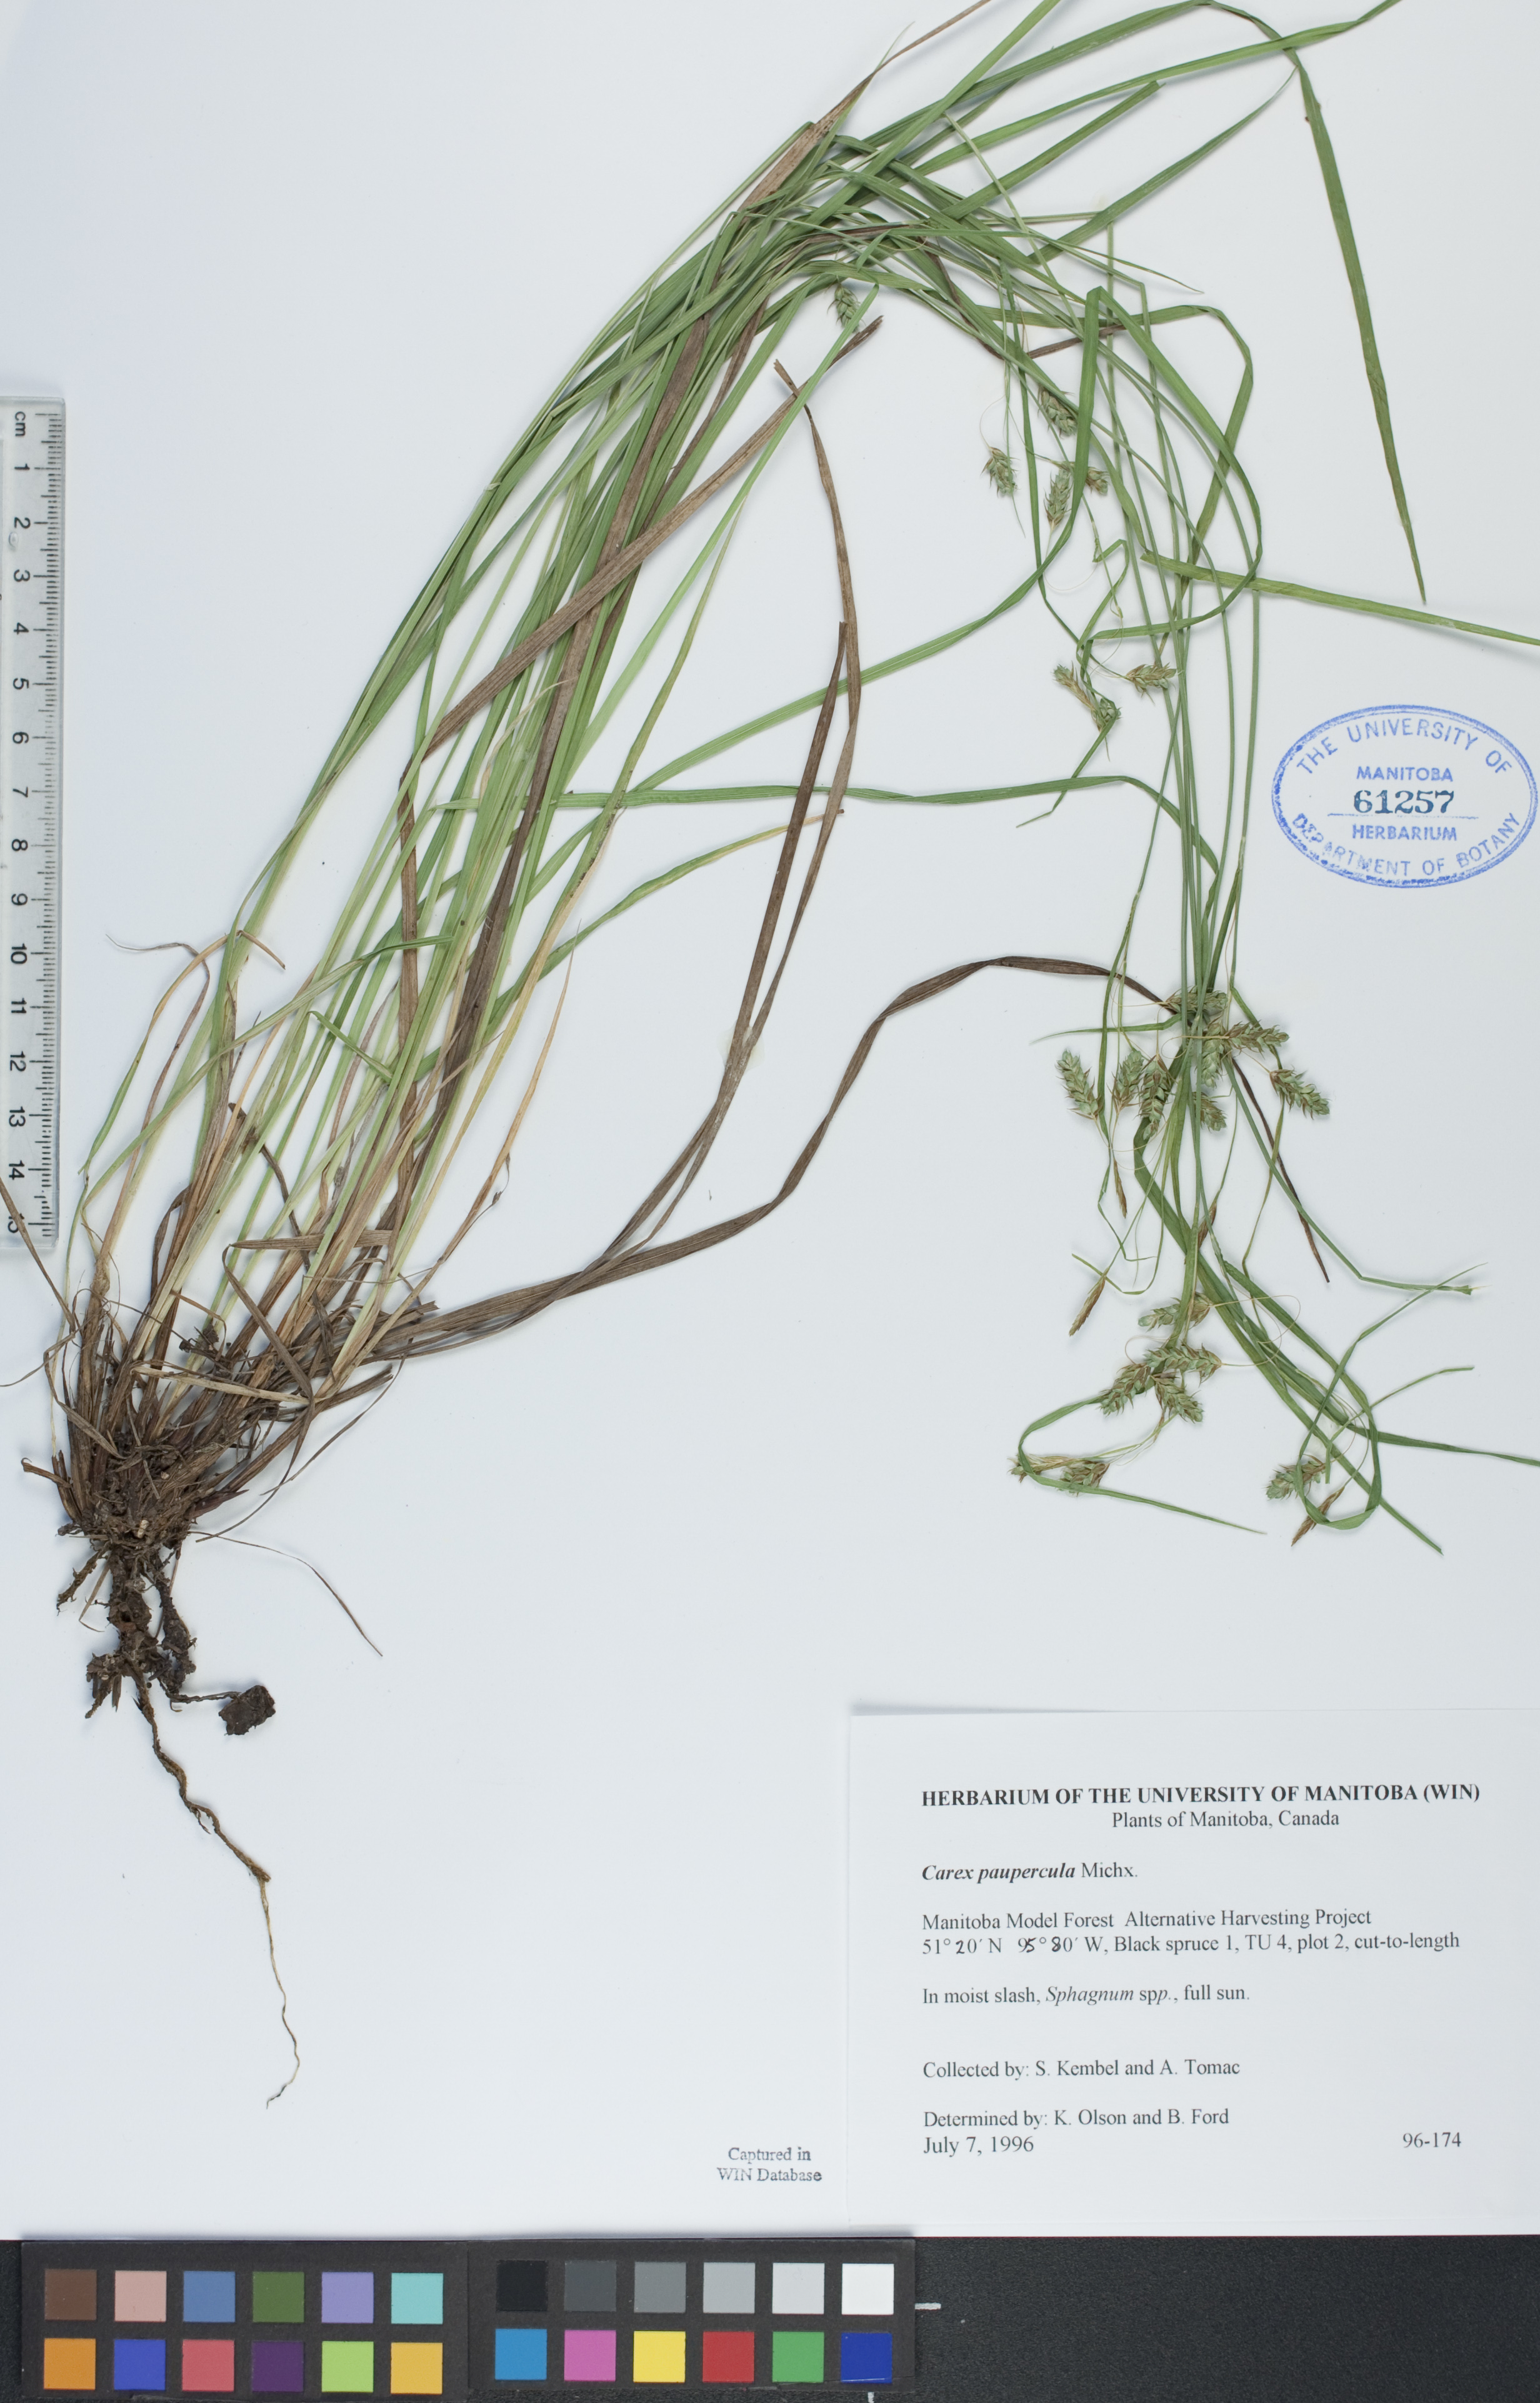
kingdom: Plantae
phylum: Tracheophyta
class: Liliopsida
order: Poales
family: Cyperaceae
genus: Carex
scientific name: Carex magellanica
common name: Bog sedge
